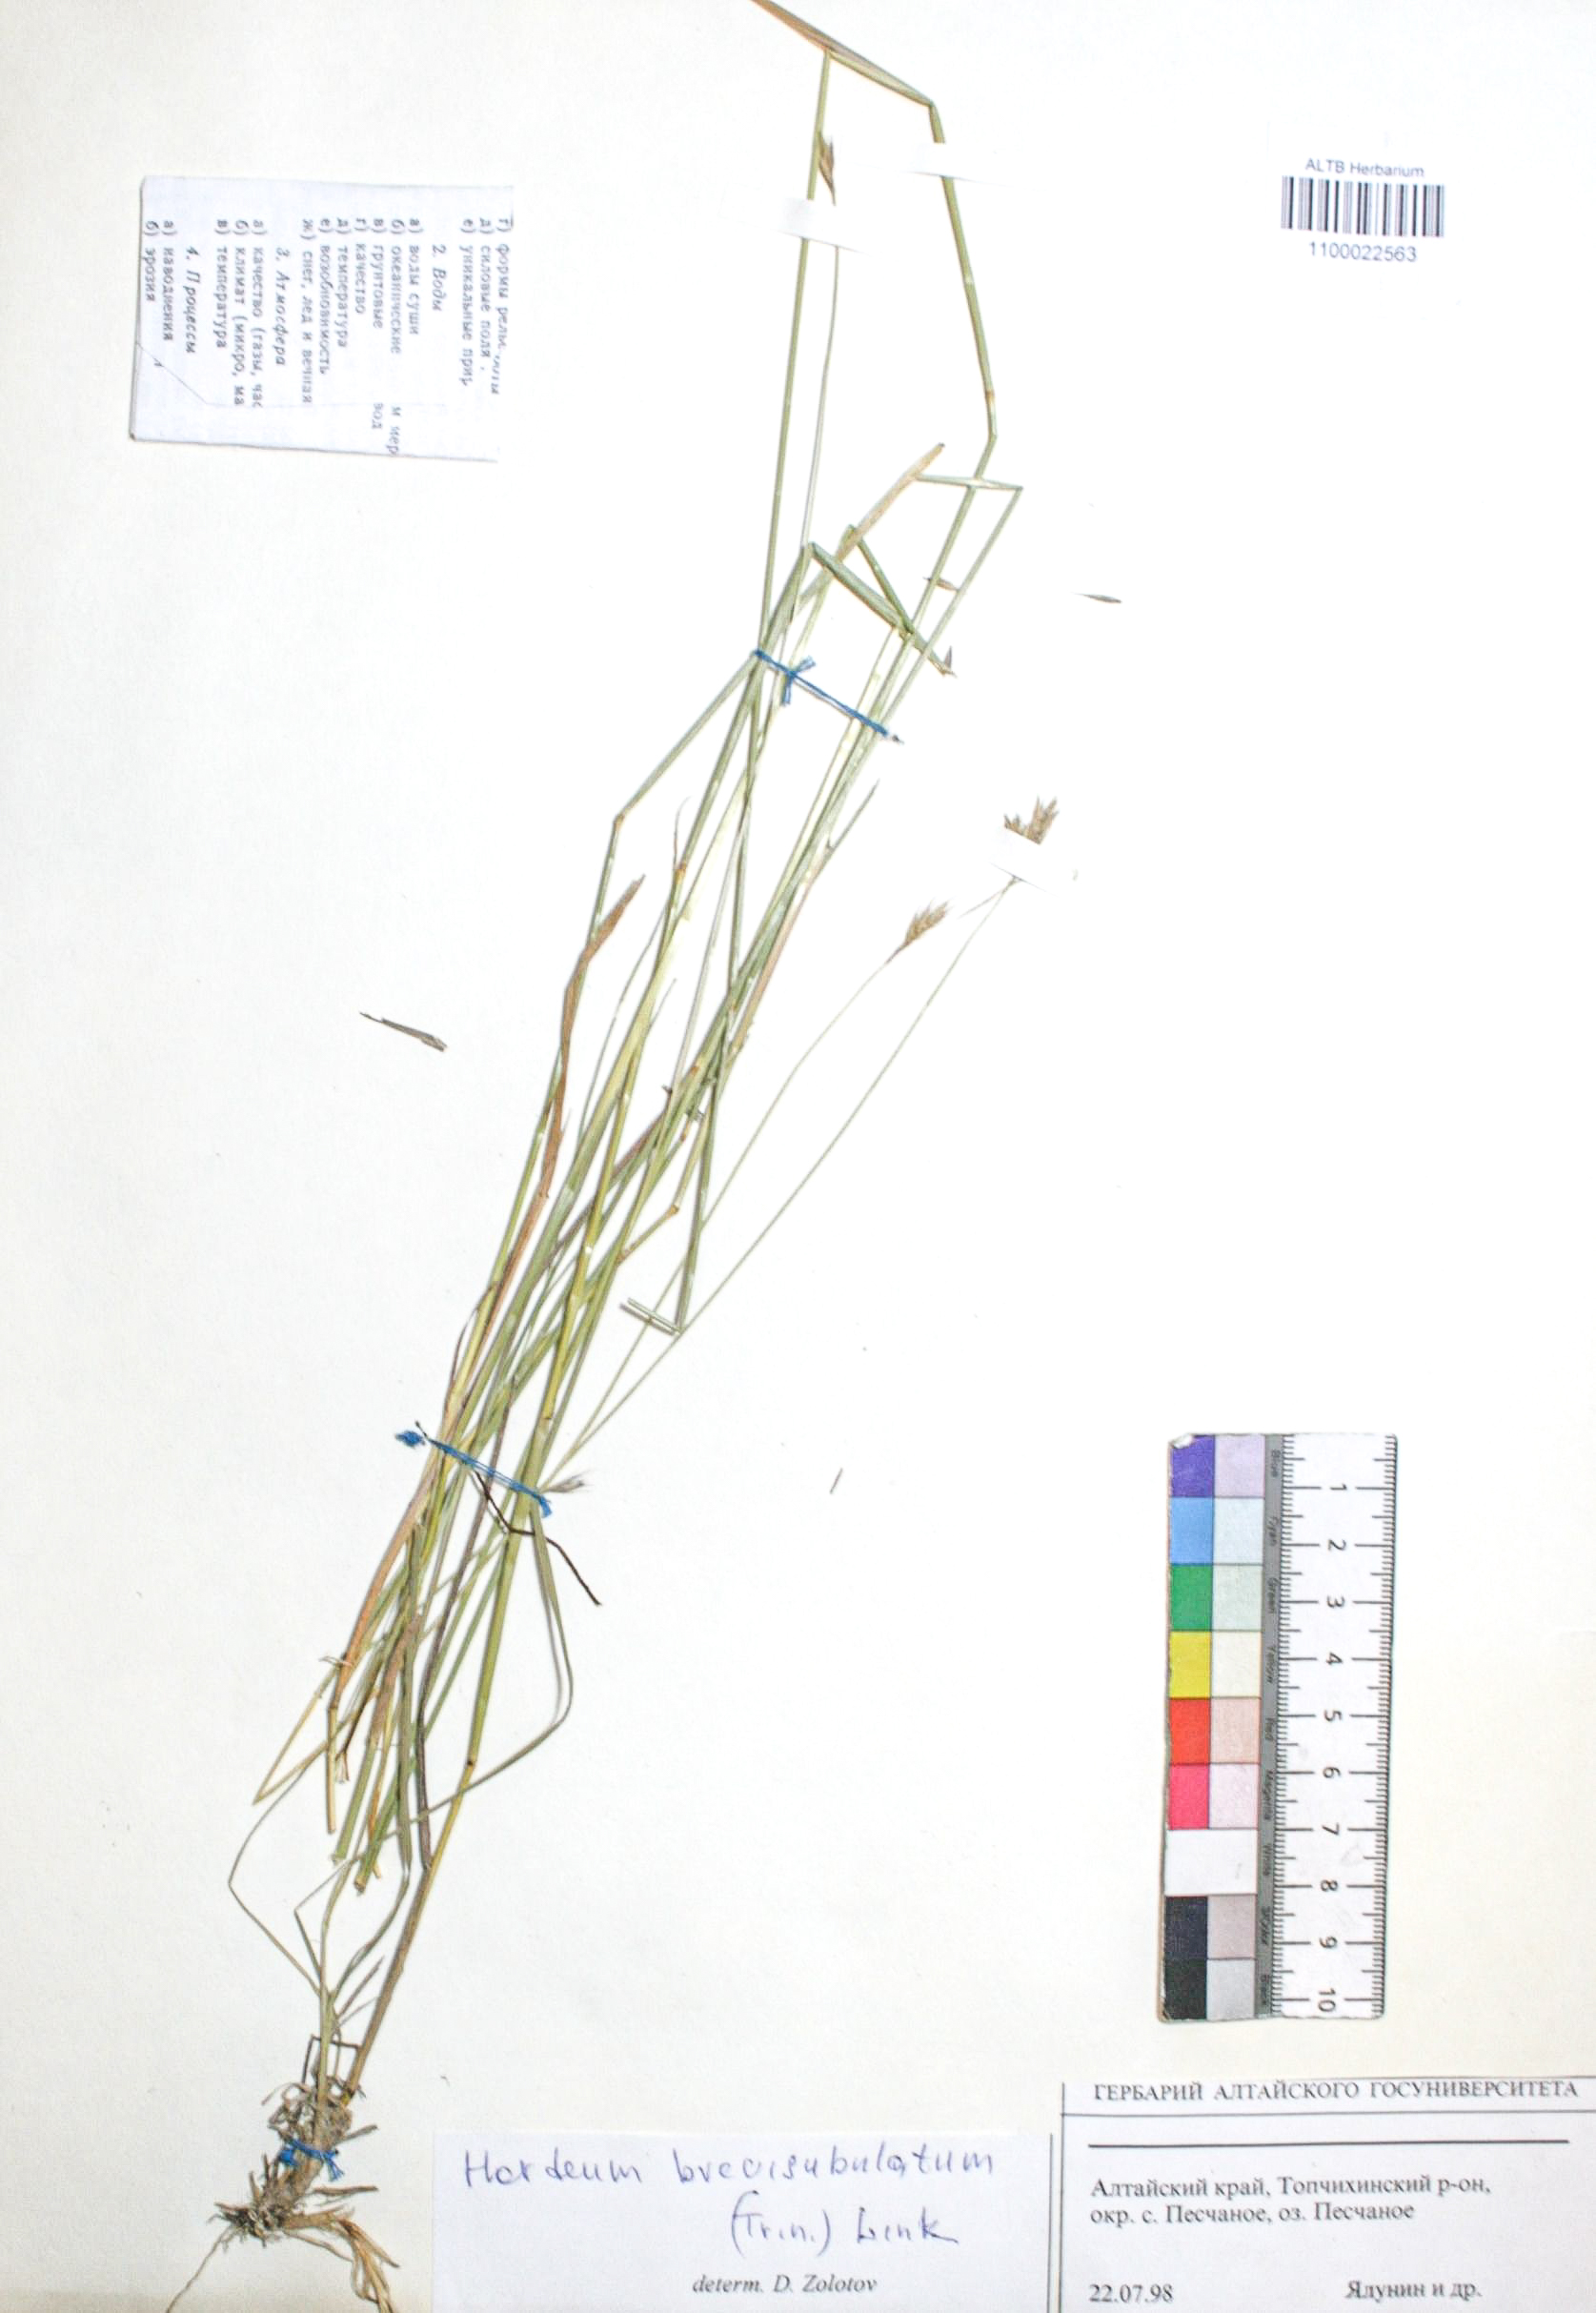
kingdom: Plantae
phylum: Tracheophyta
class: Liliopsida
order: Poales
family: Poaceae
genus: Hordeum
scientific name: Hordeum brevisubulatum
